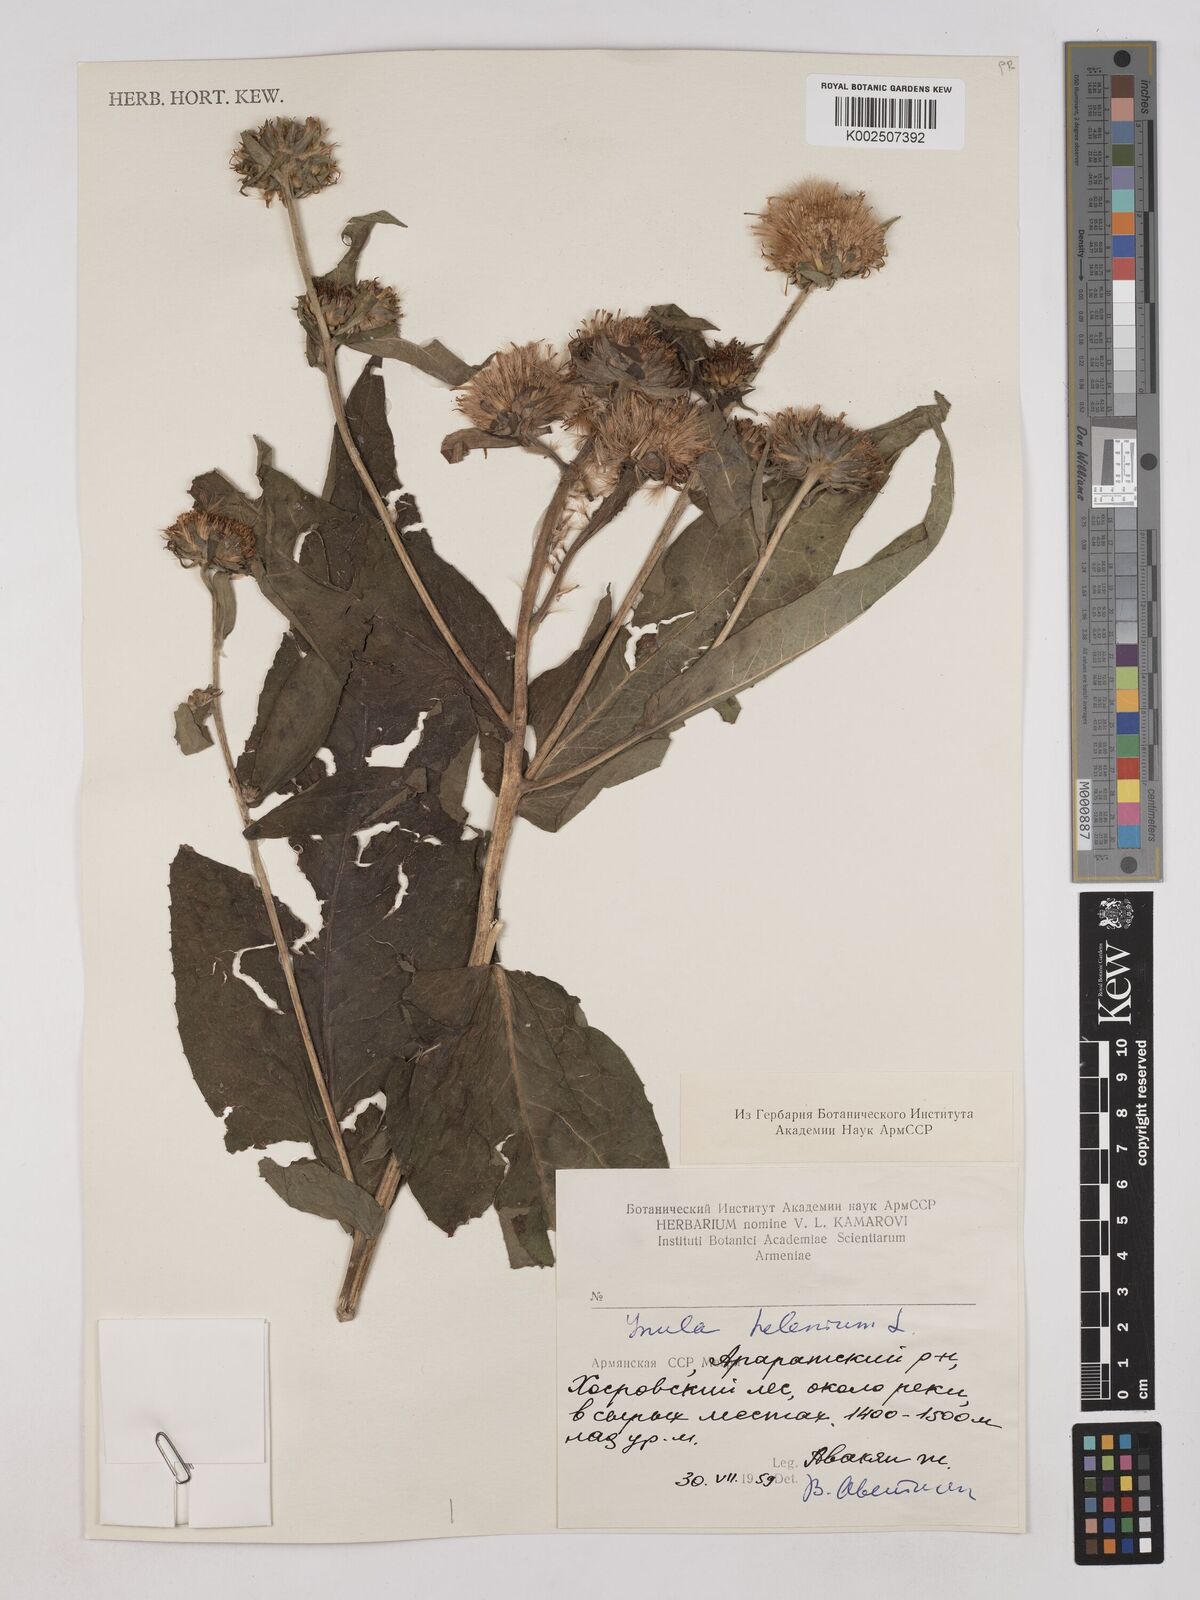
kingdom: Plantae
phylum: Tracheophyta
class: Magnoliopsida
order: Asterales
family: Asteraceae
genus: Inula
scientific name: Inula helenium
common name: Elecampane
